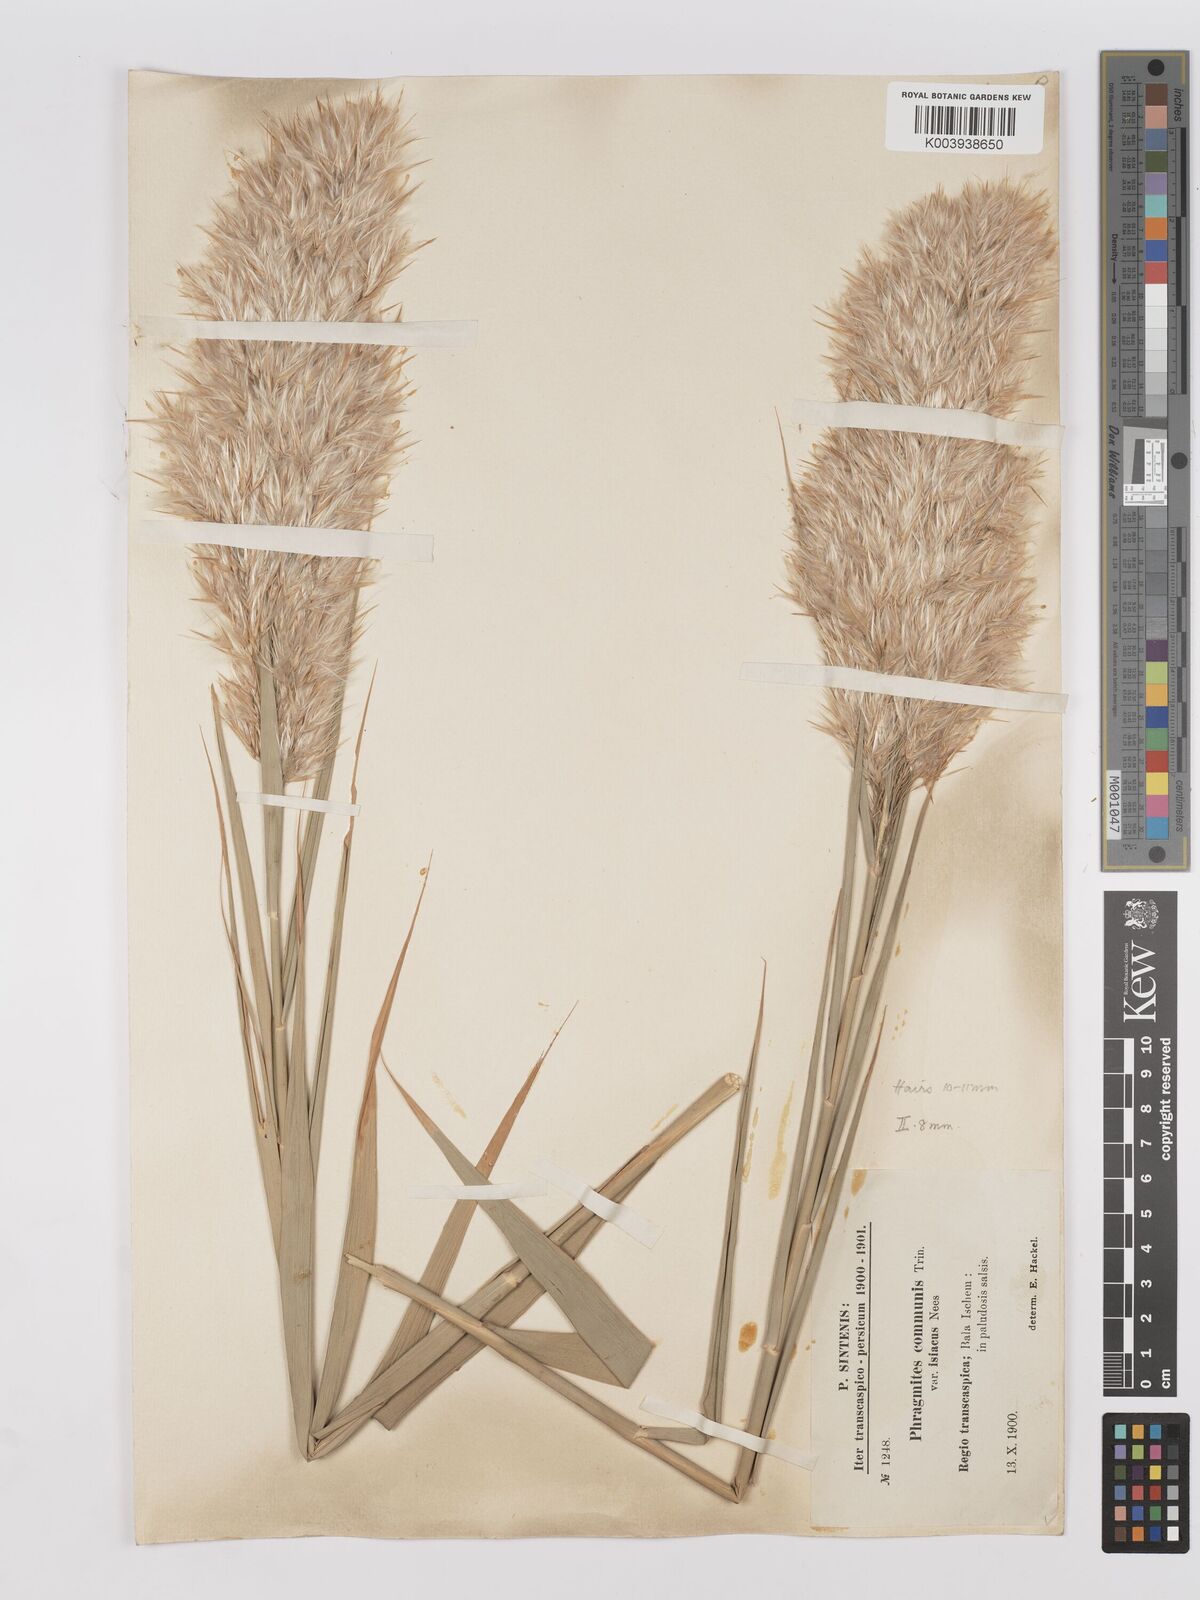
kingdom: Plantae
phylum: Tracheophyta
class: Liliopsida
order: Poales
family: Poaceae
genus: Phragmites
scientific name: Phragmites australis
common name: Common reed
